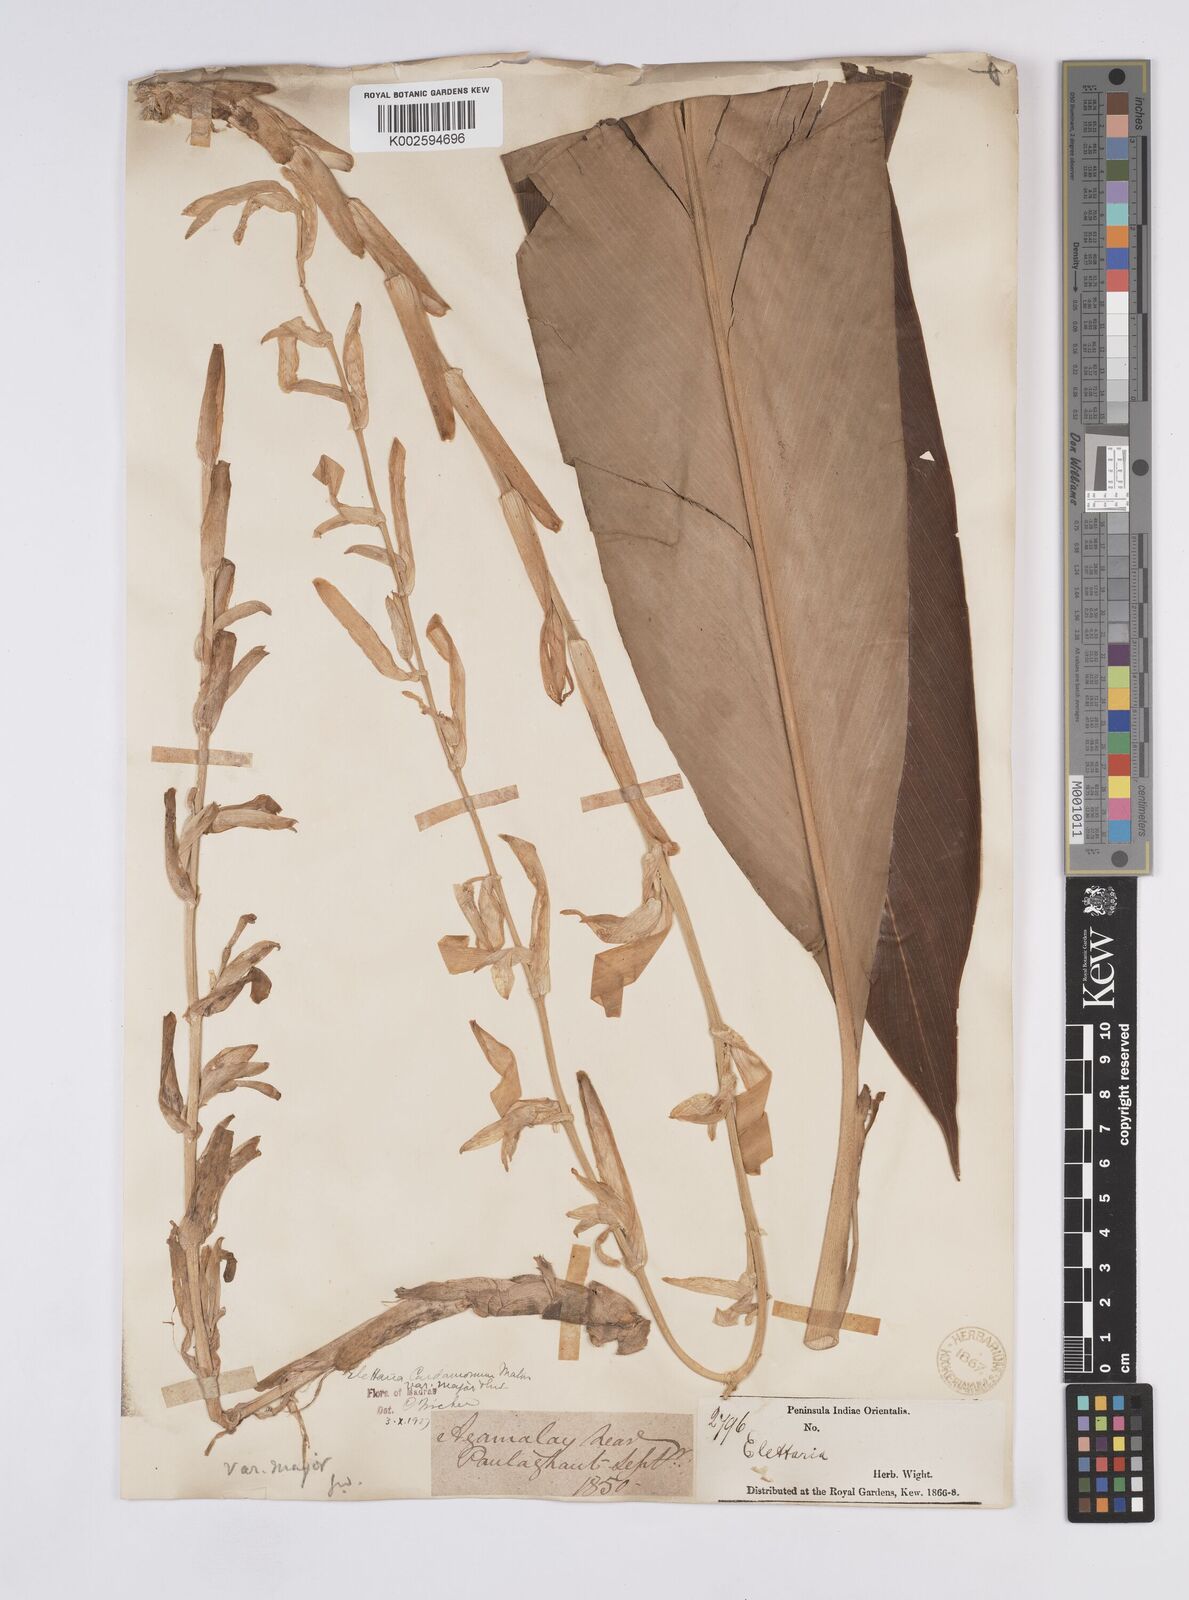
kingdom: Plantae
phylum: Tracheophyta
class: Liliopsida
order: Zingiberales
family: Zingiberaceae
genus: Elettaria
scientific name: Elettaria ensal
